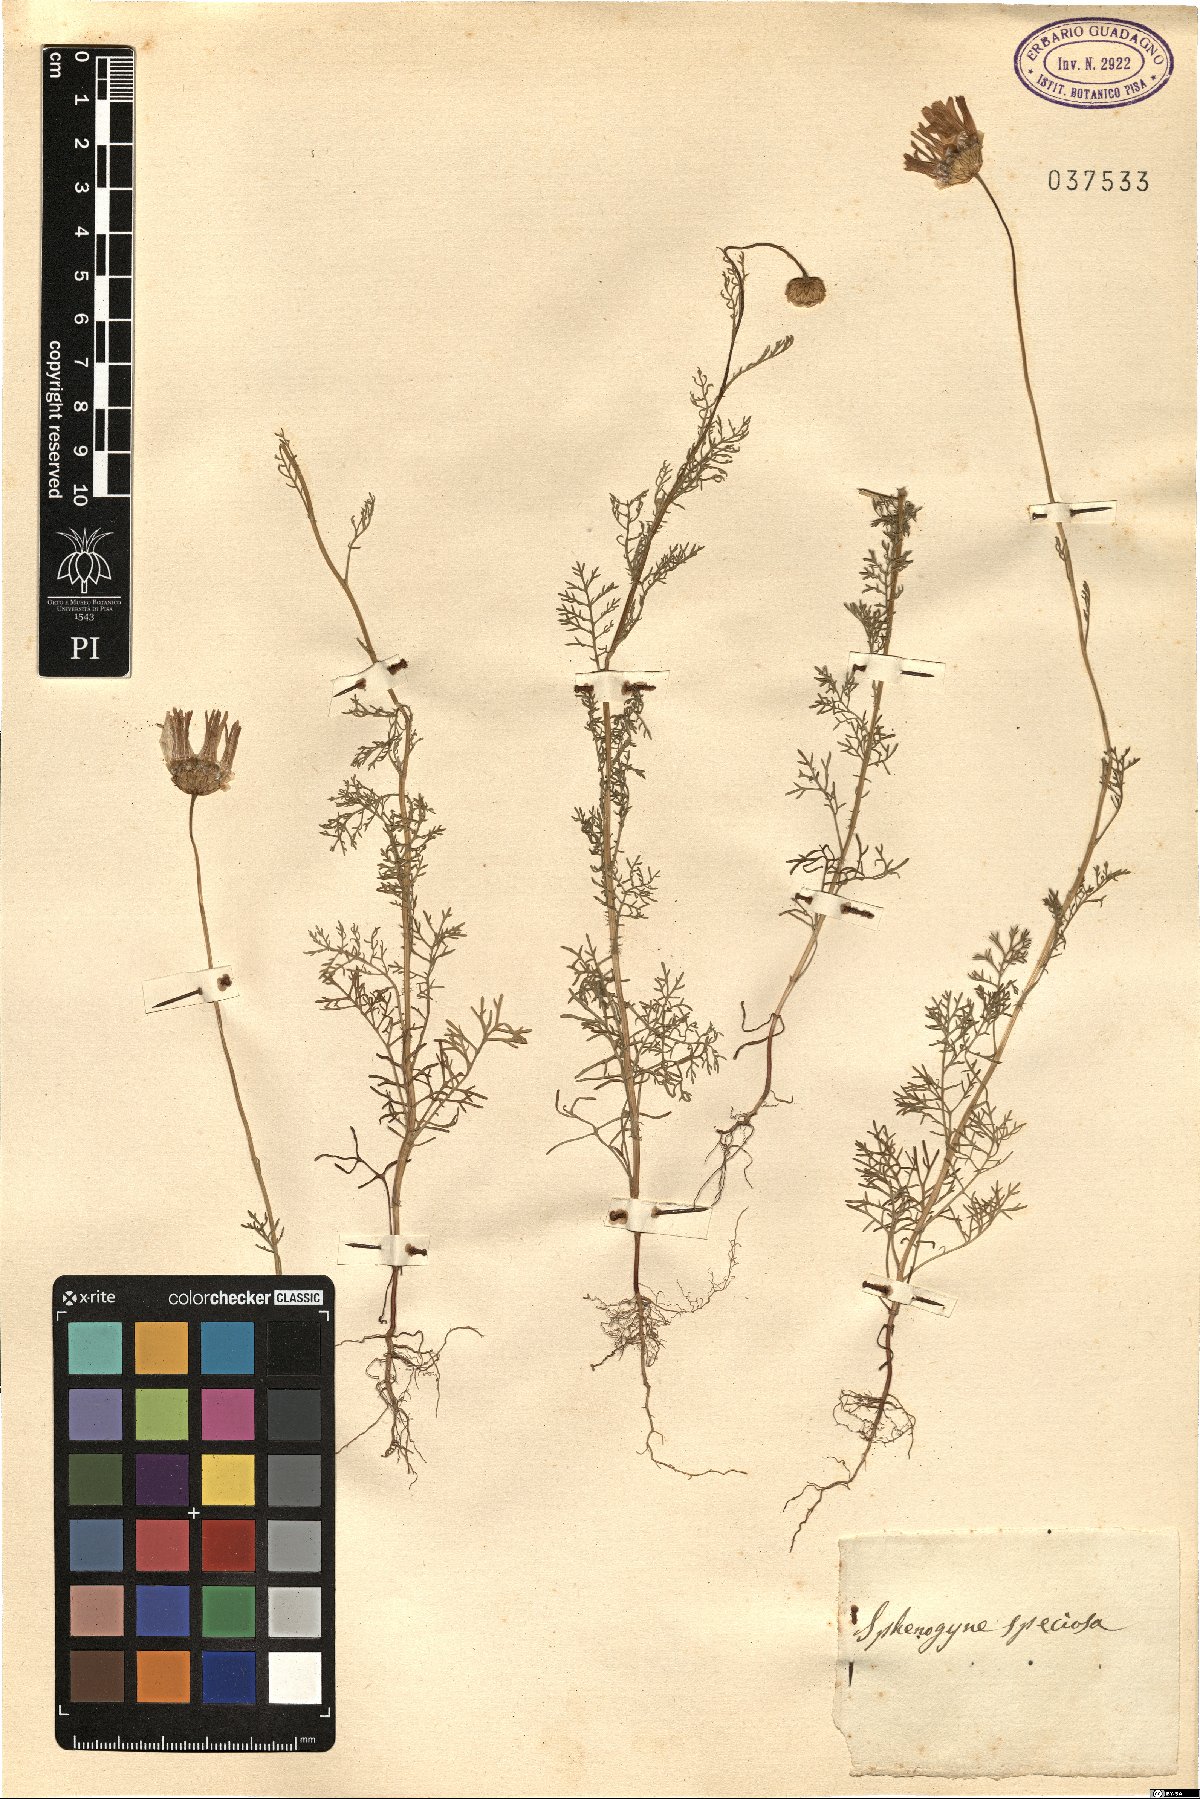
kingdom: Plantae
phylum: Tracheophyta
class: Magnoliopsida
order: Asterales
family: Asteraceae
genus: Ursinia
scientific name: Ursinia speciosa
